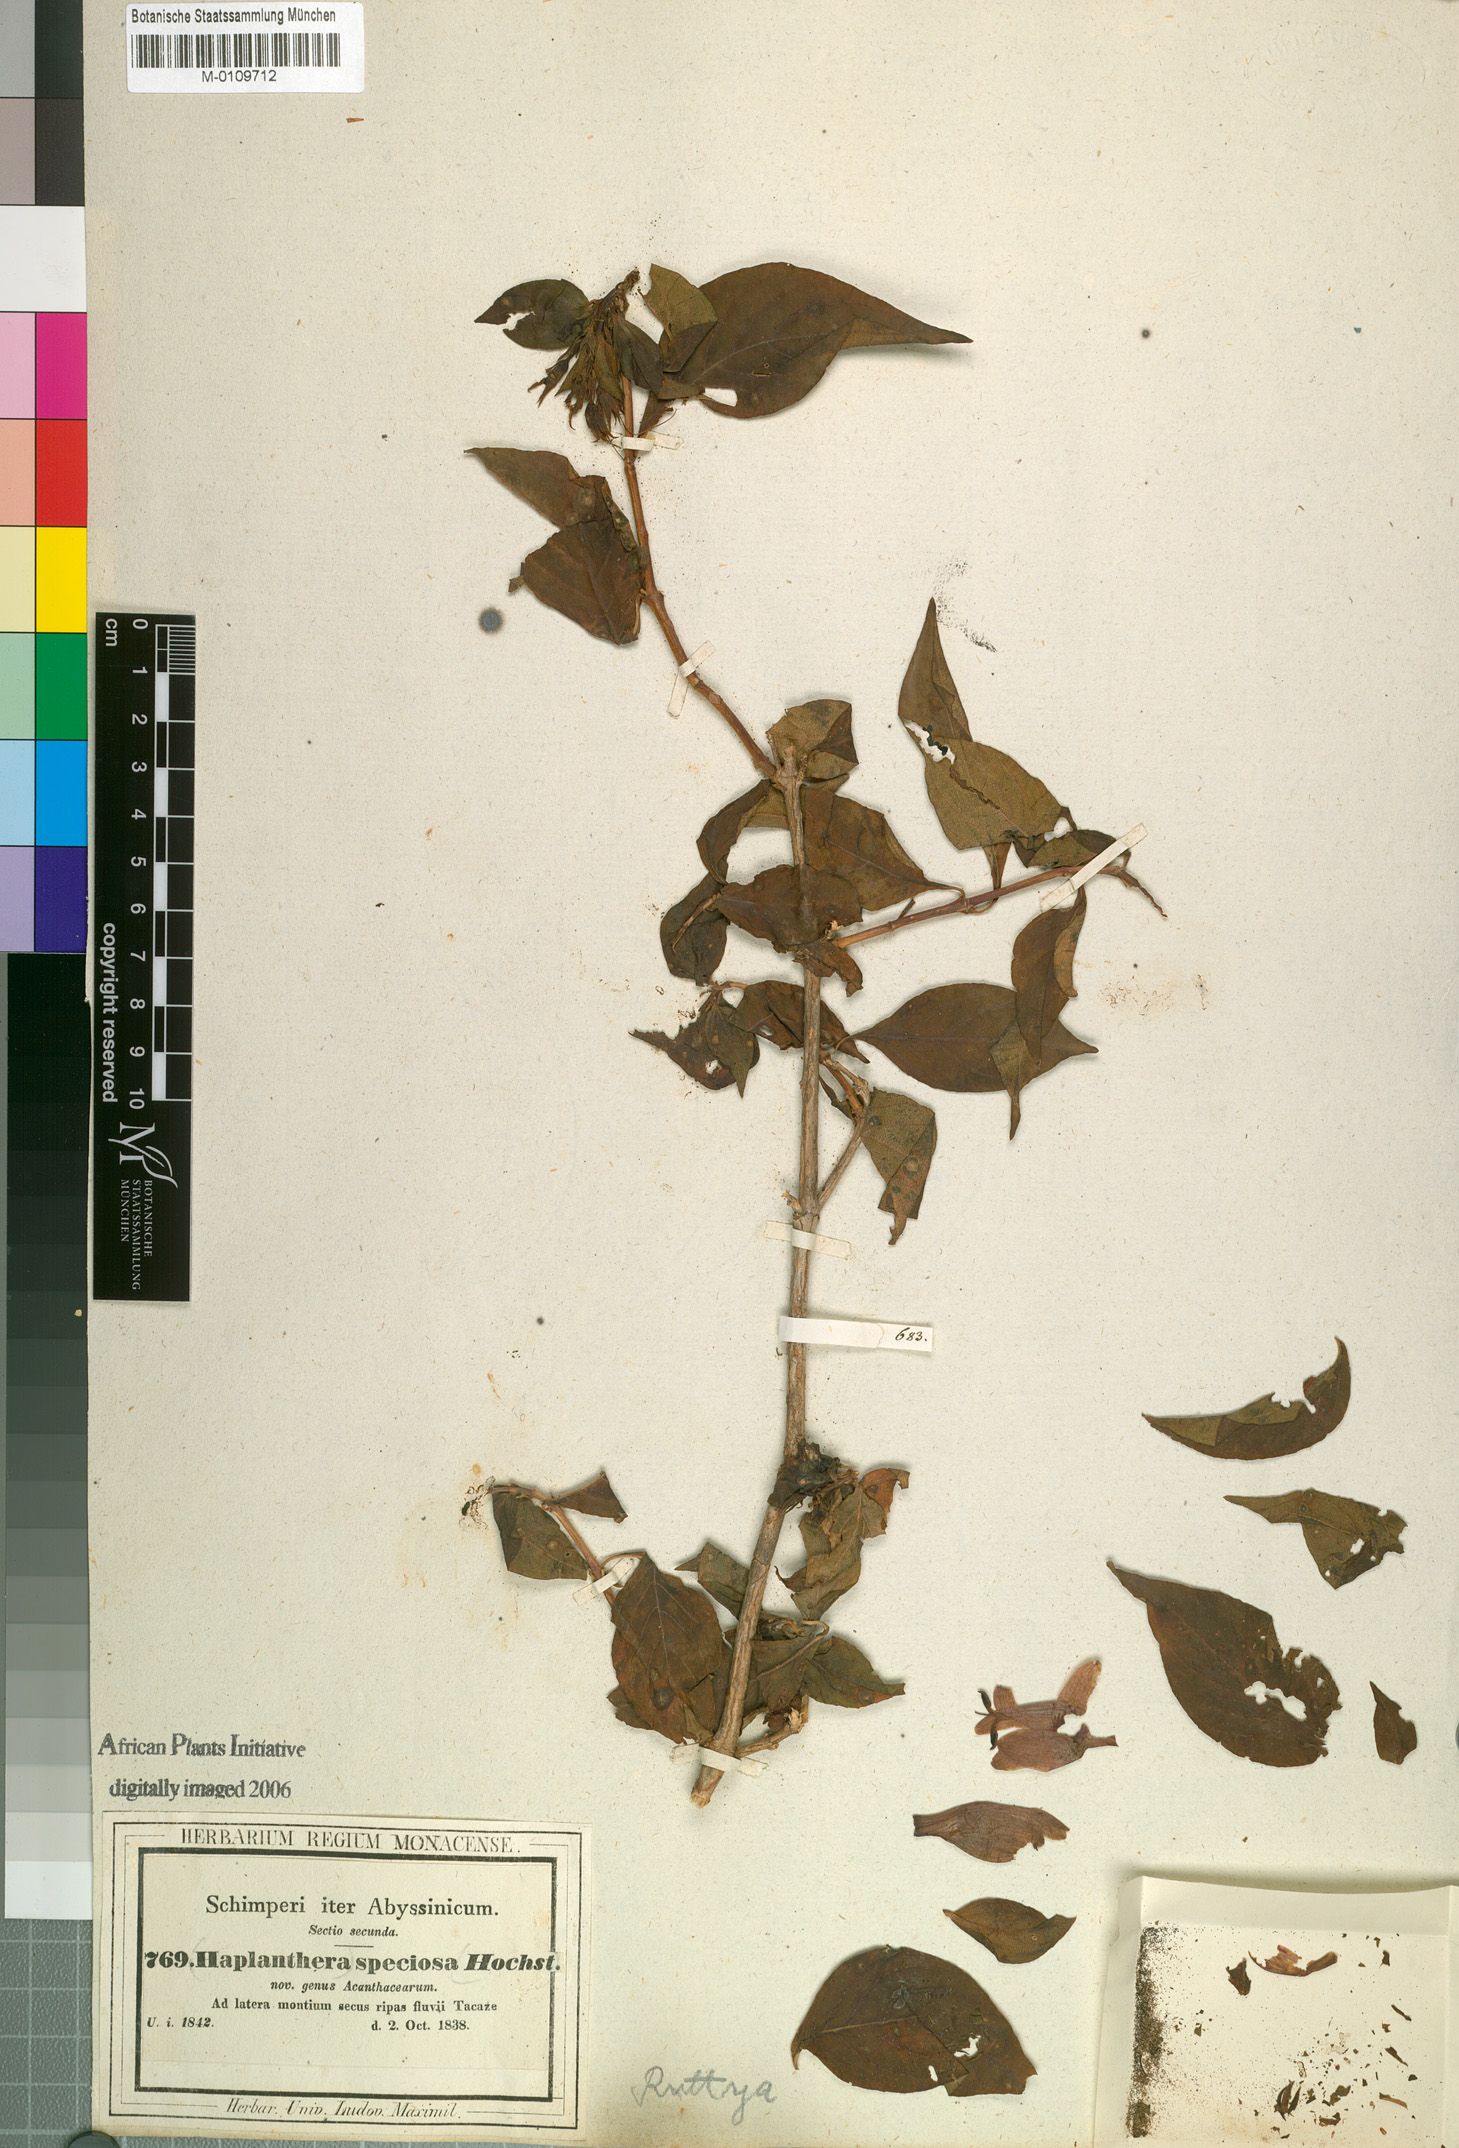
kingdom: Plantae
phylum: Tracheophyta
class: Magnoliopsida
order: Lamiales
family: Acanthaceae
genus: Ruttya
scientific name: Ruttya speciosa
